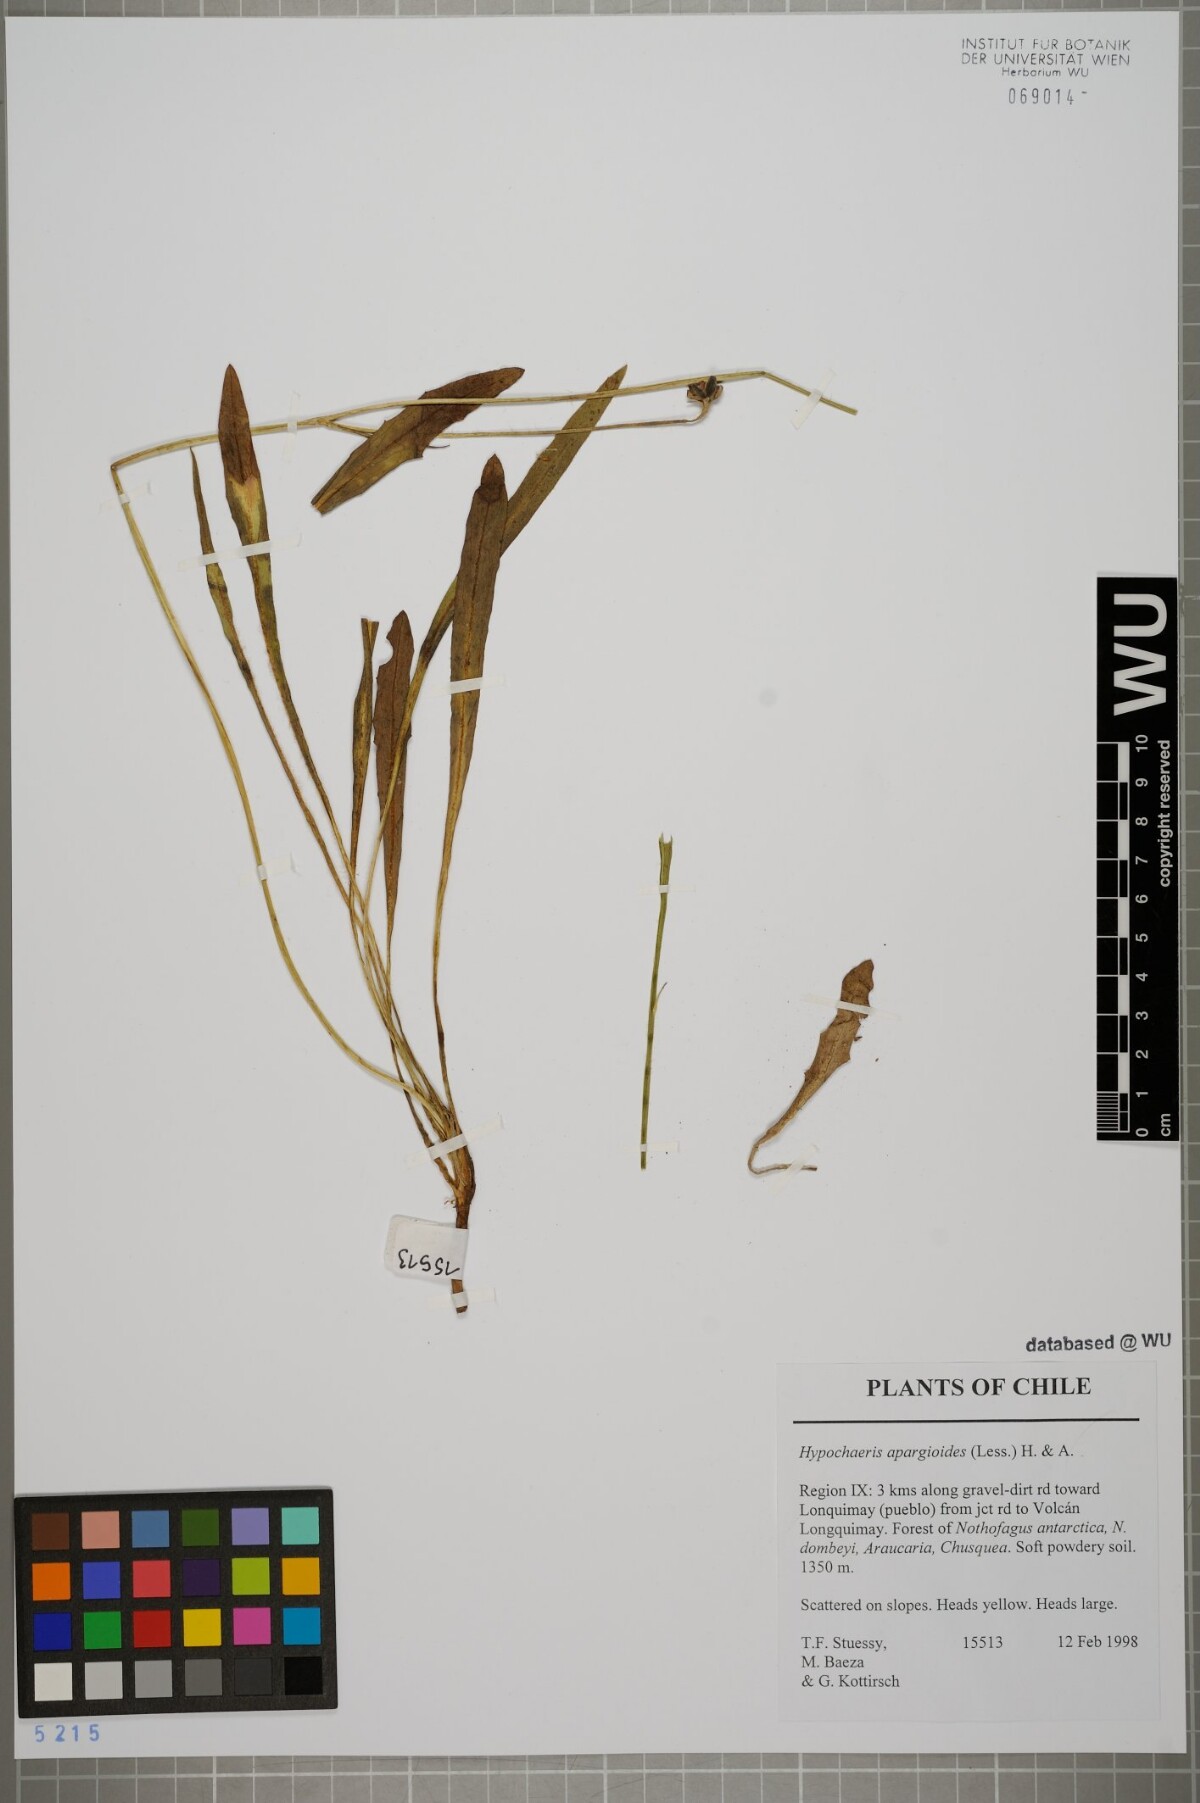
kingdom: Plantae
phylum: Tracheophyta
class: Magnoliopsida
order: Asterales
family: Asteraceae
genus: Hypochaeris
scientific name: Hypochaeris apargioides
